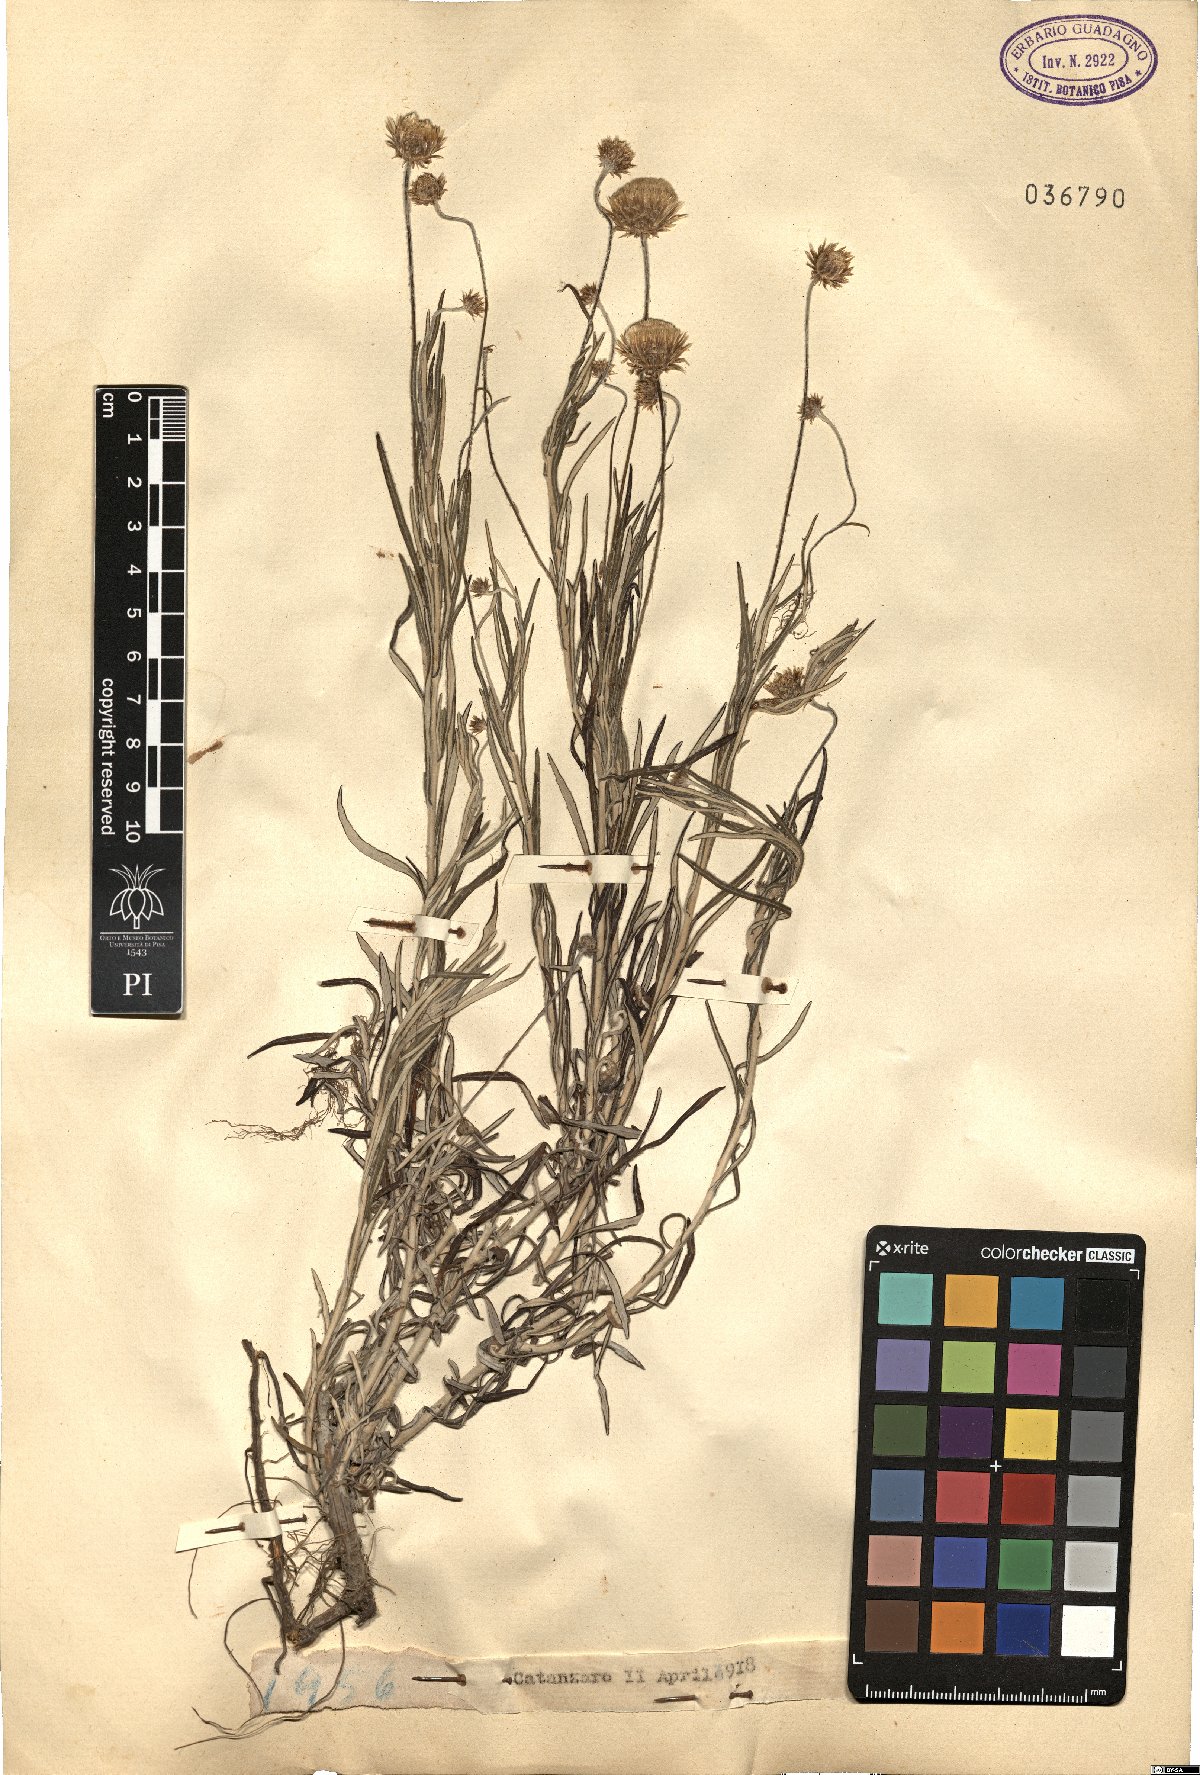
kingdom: Plantae
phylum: Tracheophyta
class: Magnoliopsida
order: Asterales
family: Asteraceae
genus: Phagnalon
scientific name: Phagnalon
